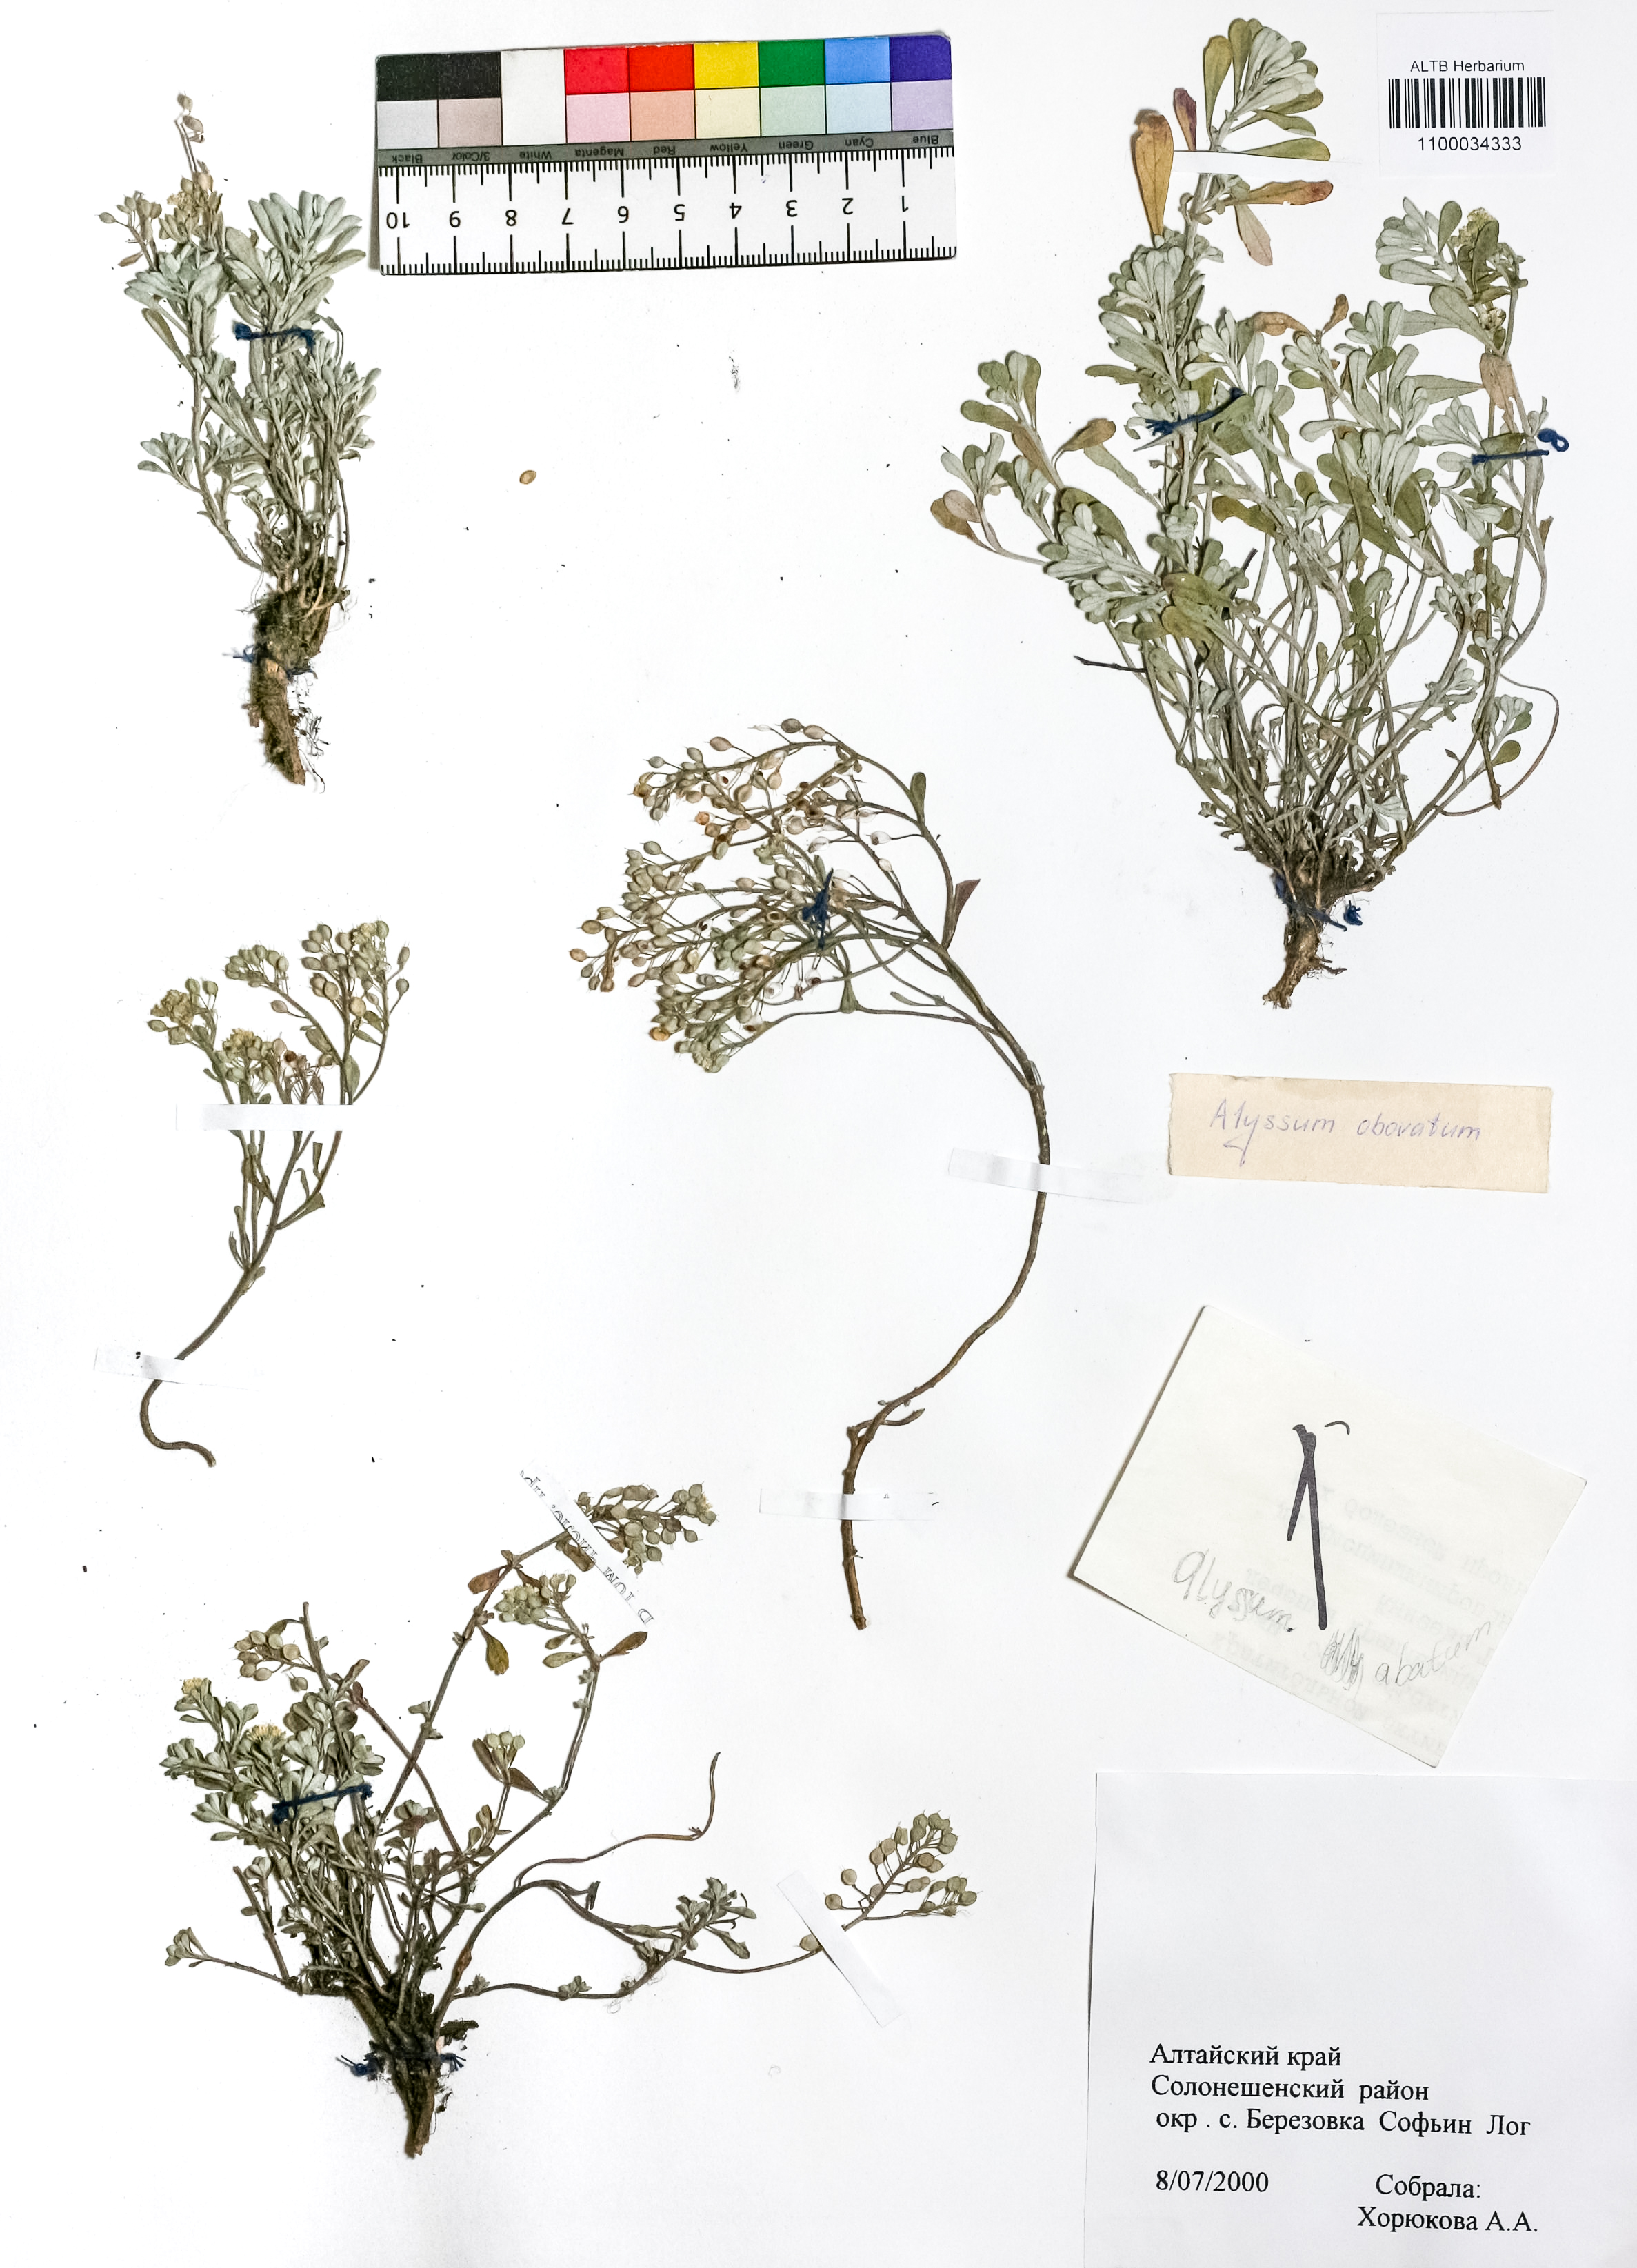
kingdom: Plantae
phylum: Tracheophyta
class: Magnoliopsida
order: Brassicales
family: Brassicaceae
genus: Odontarrhena
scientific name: Odontarrhena obovata
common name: American alyssum
